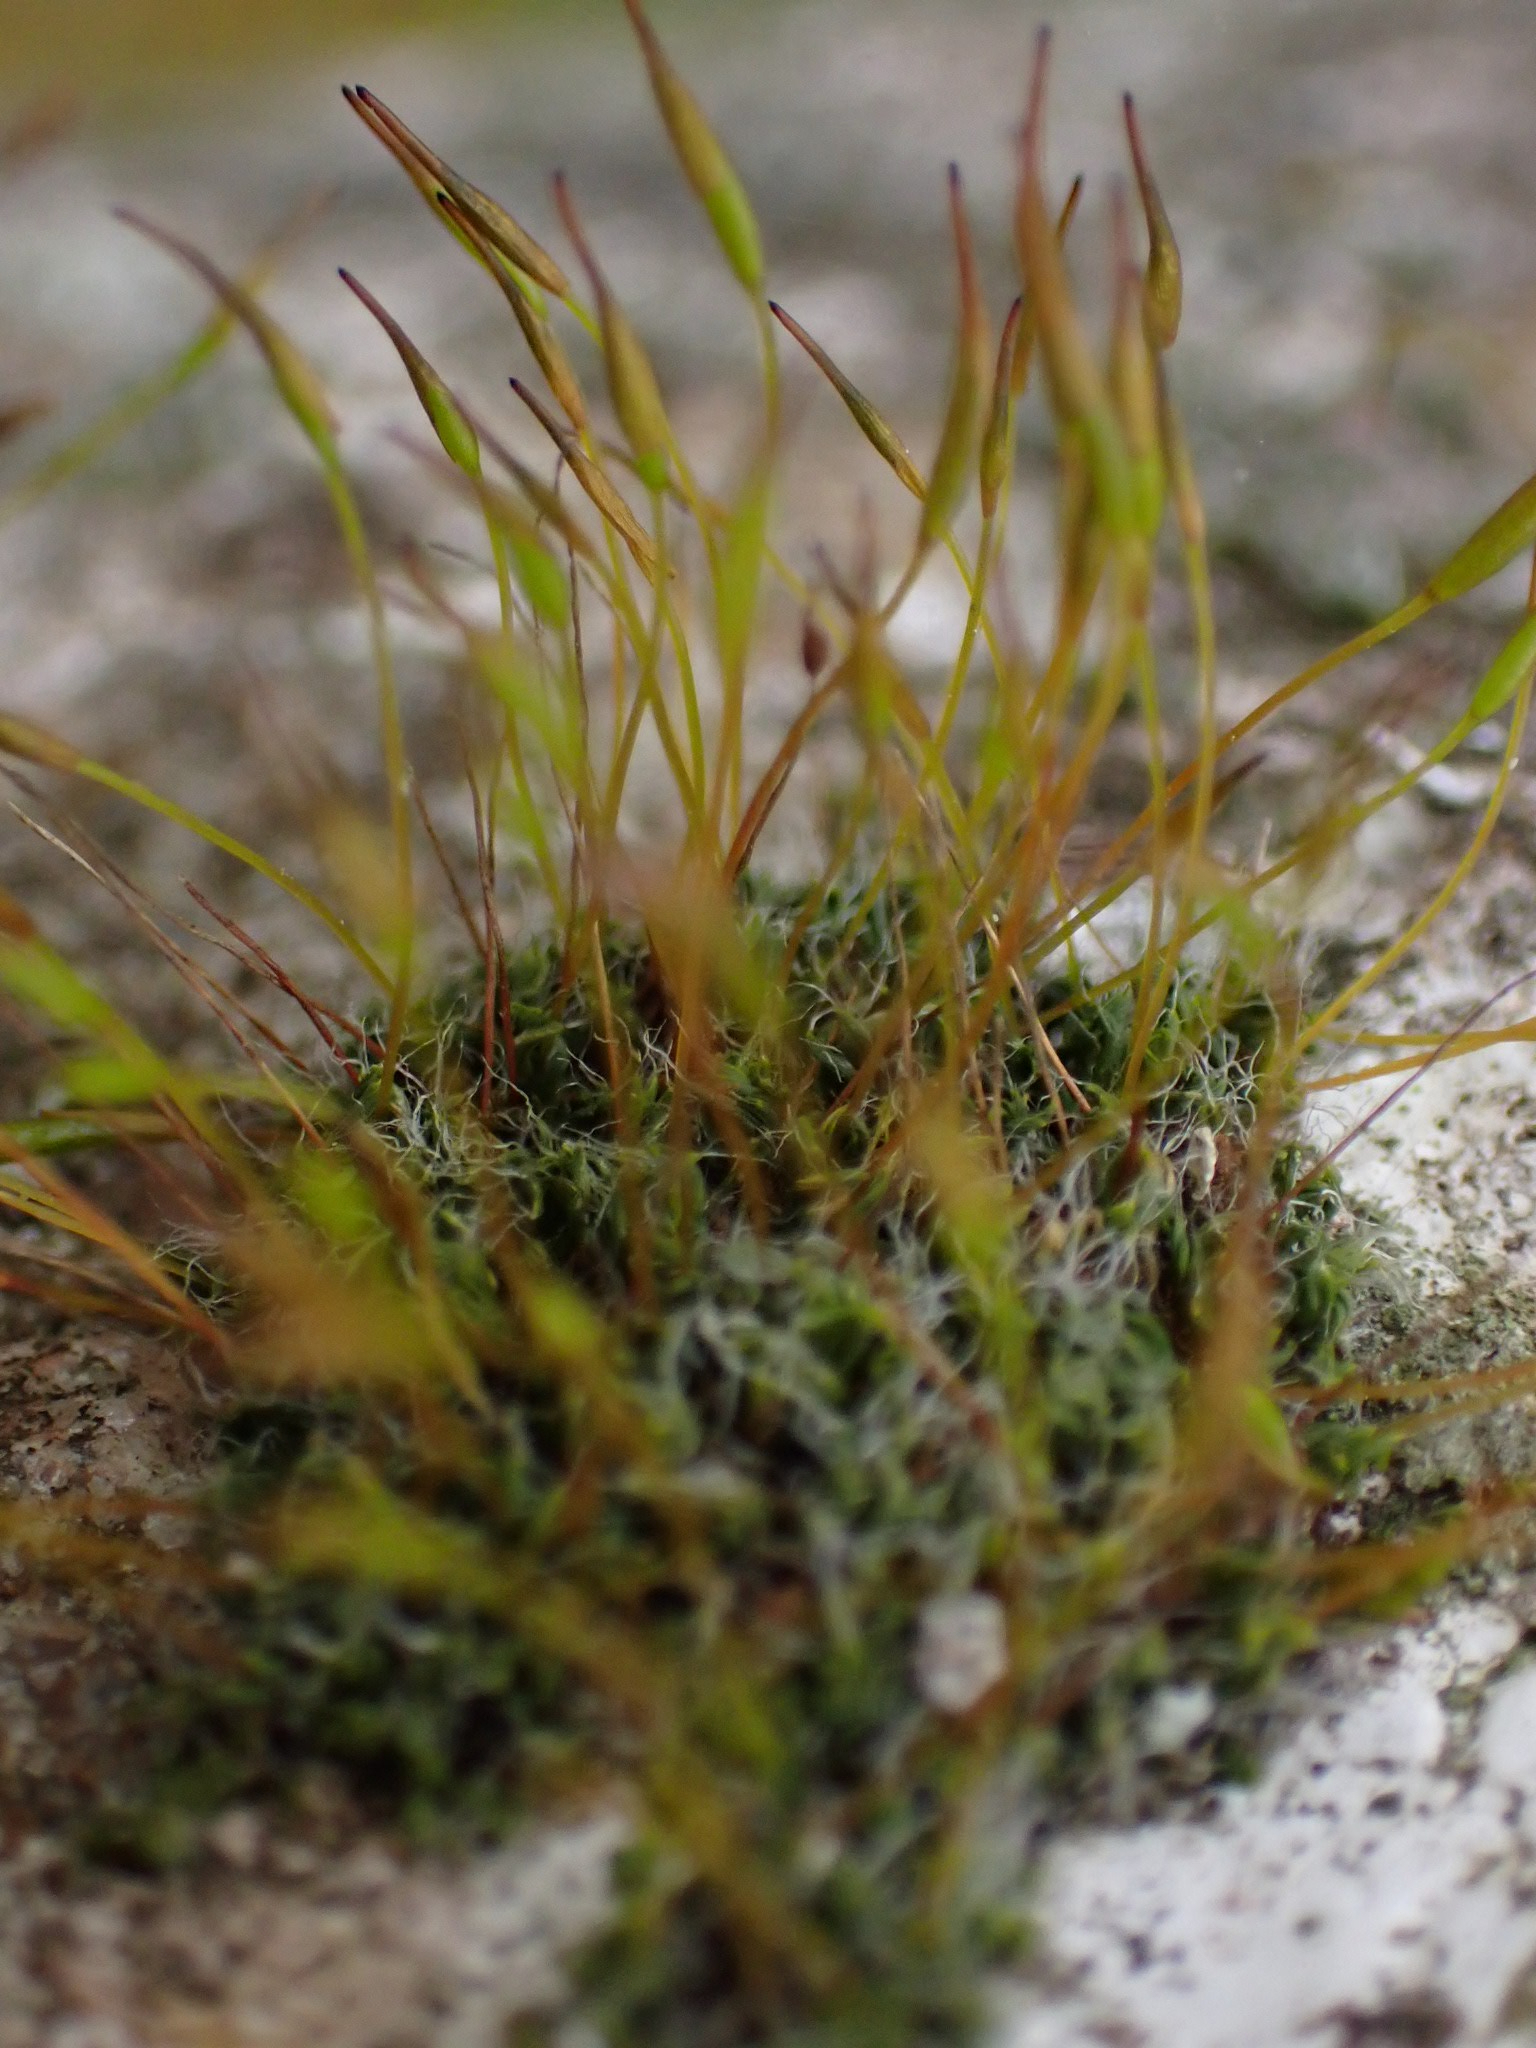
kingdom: Plantae
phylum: Bryophyta
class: Bryopsida
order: Pottiales
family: Pottiaceae
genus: Tortula
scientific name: Tortula muralis
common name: Mur-snotand
